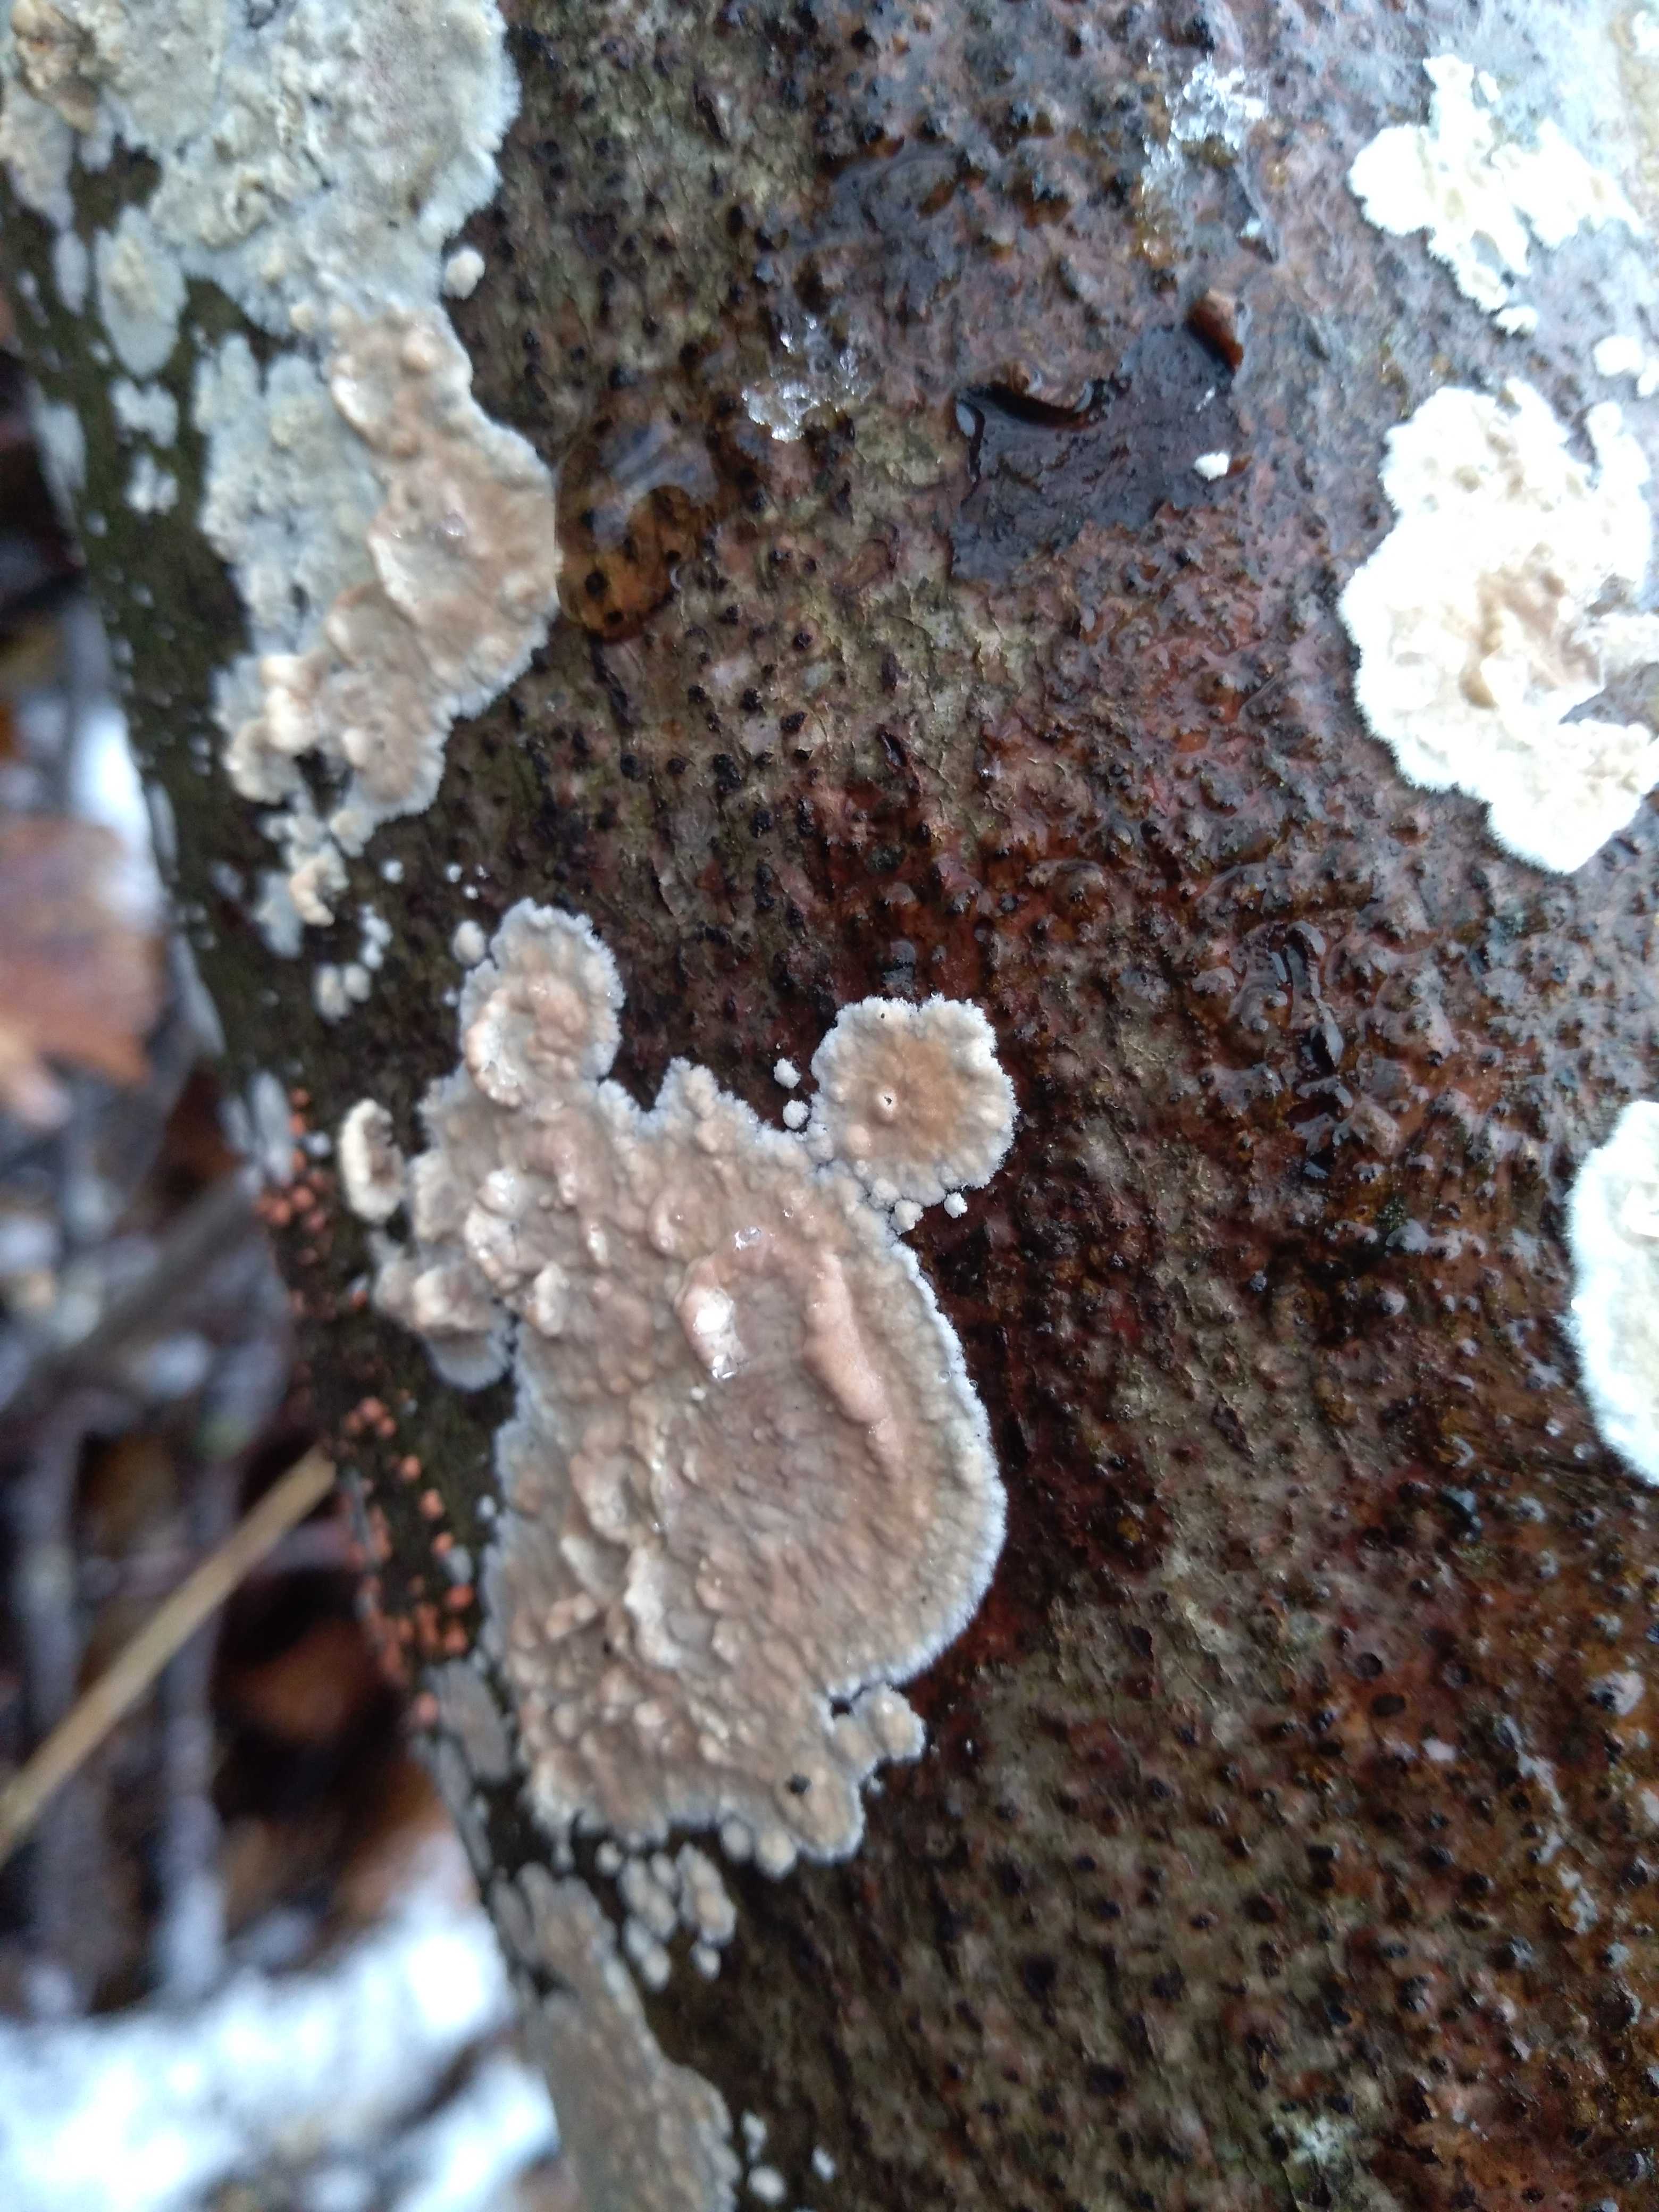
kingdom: Fungi
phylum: Basidiomycota
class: Agaricomycetes
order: Agaricales
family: Physalacriaceae
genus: Cylindrobasidium
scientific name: Cylindrobasidium evolvens
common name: sprækkehinde
